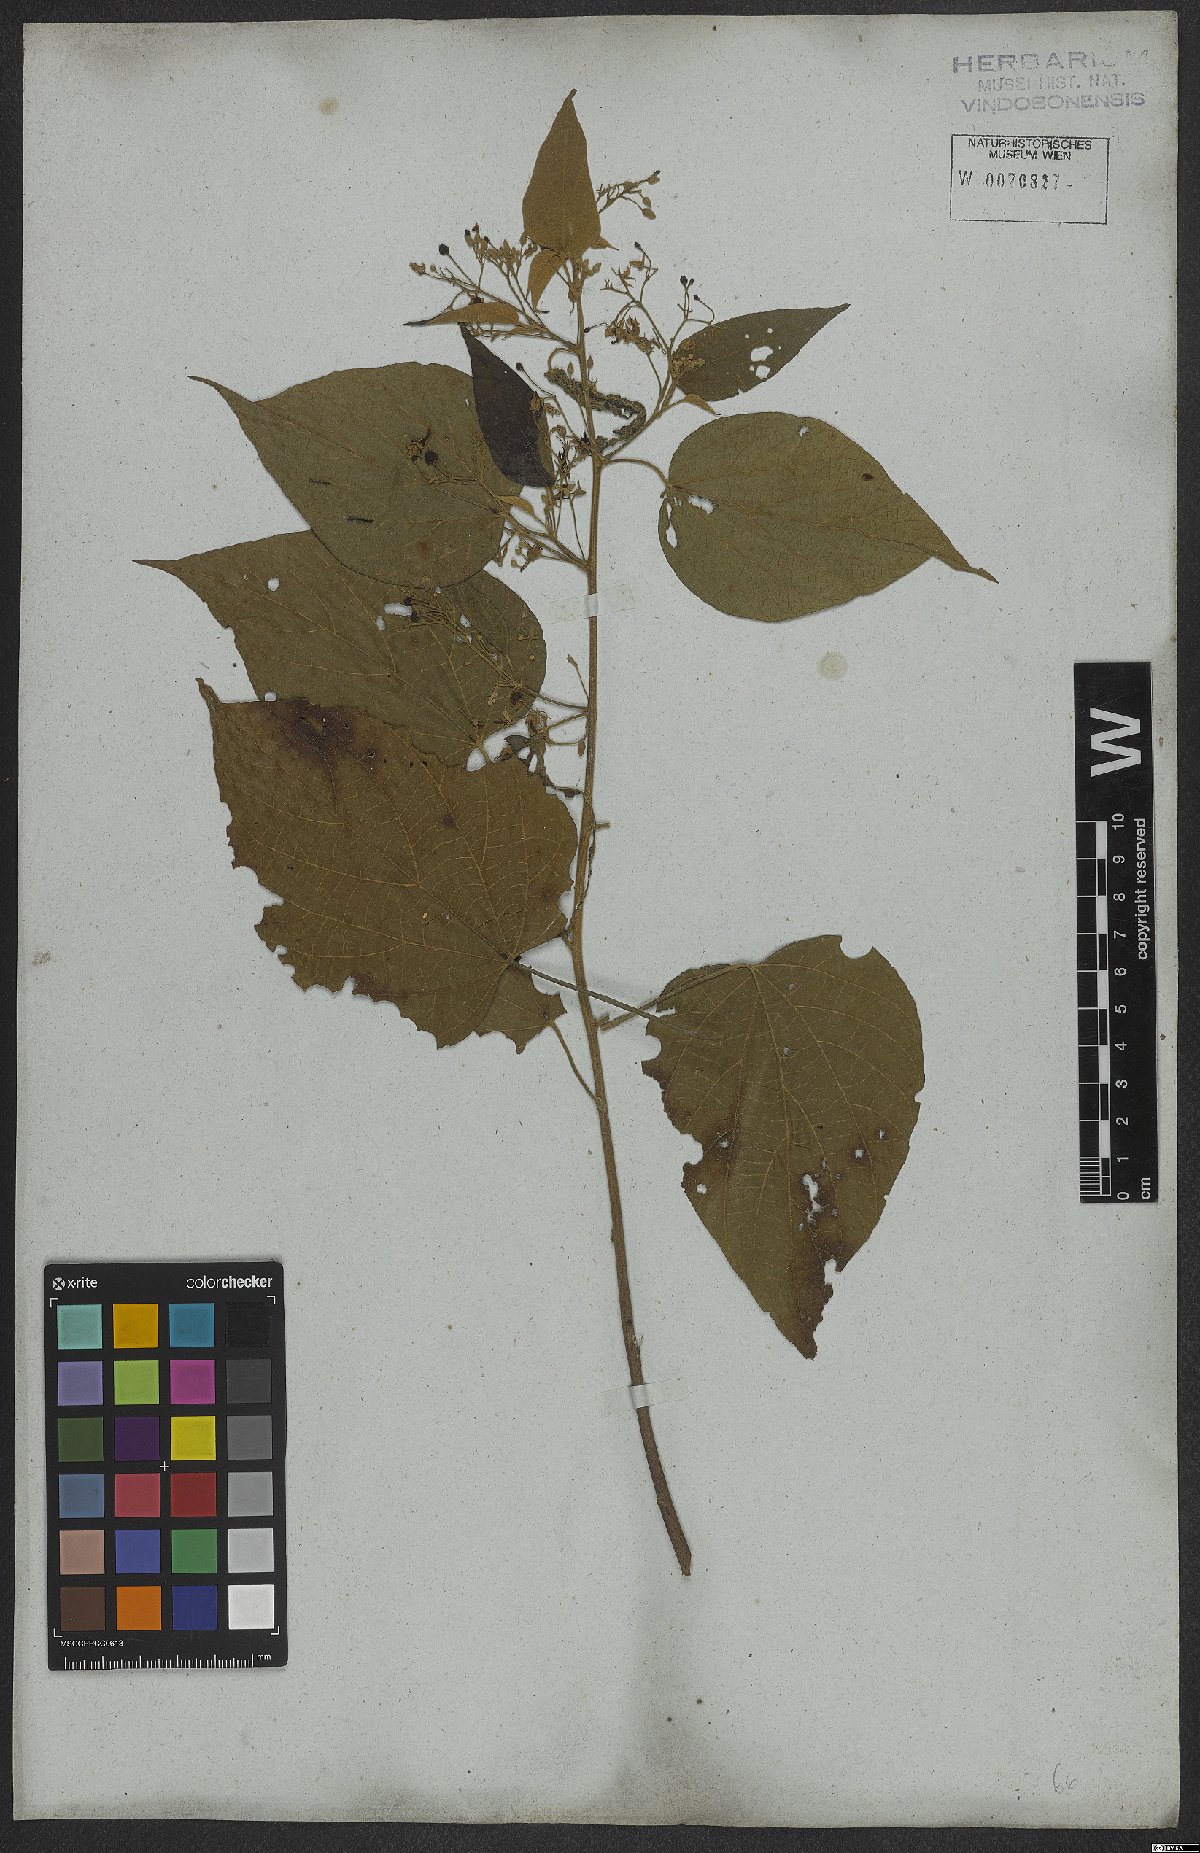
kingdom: Plantae
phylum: Tracheophyta
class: Magnoliopsida
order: Malvales
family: Malvaceae
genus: Byttneria
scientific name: Byttneria catalpifolia
